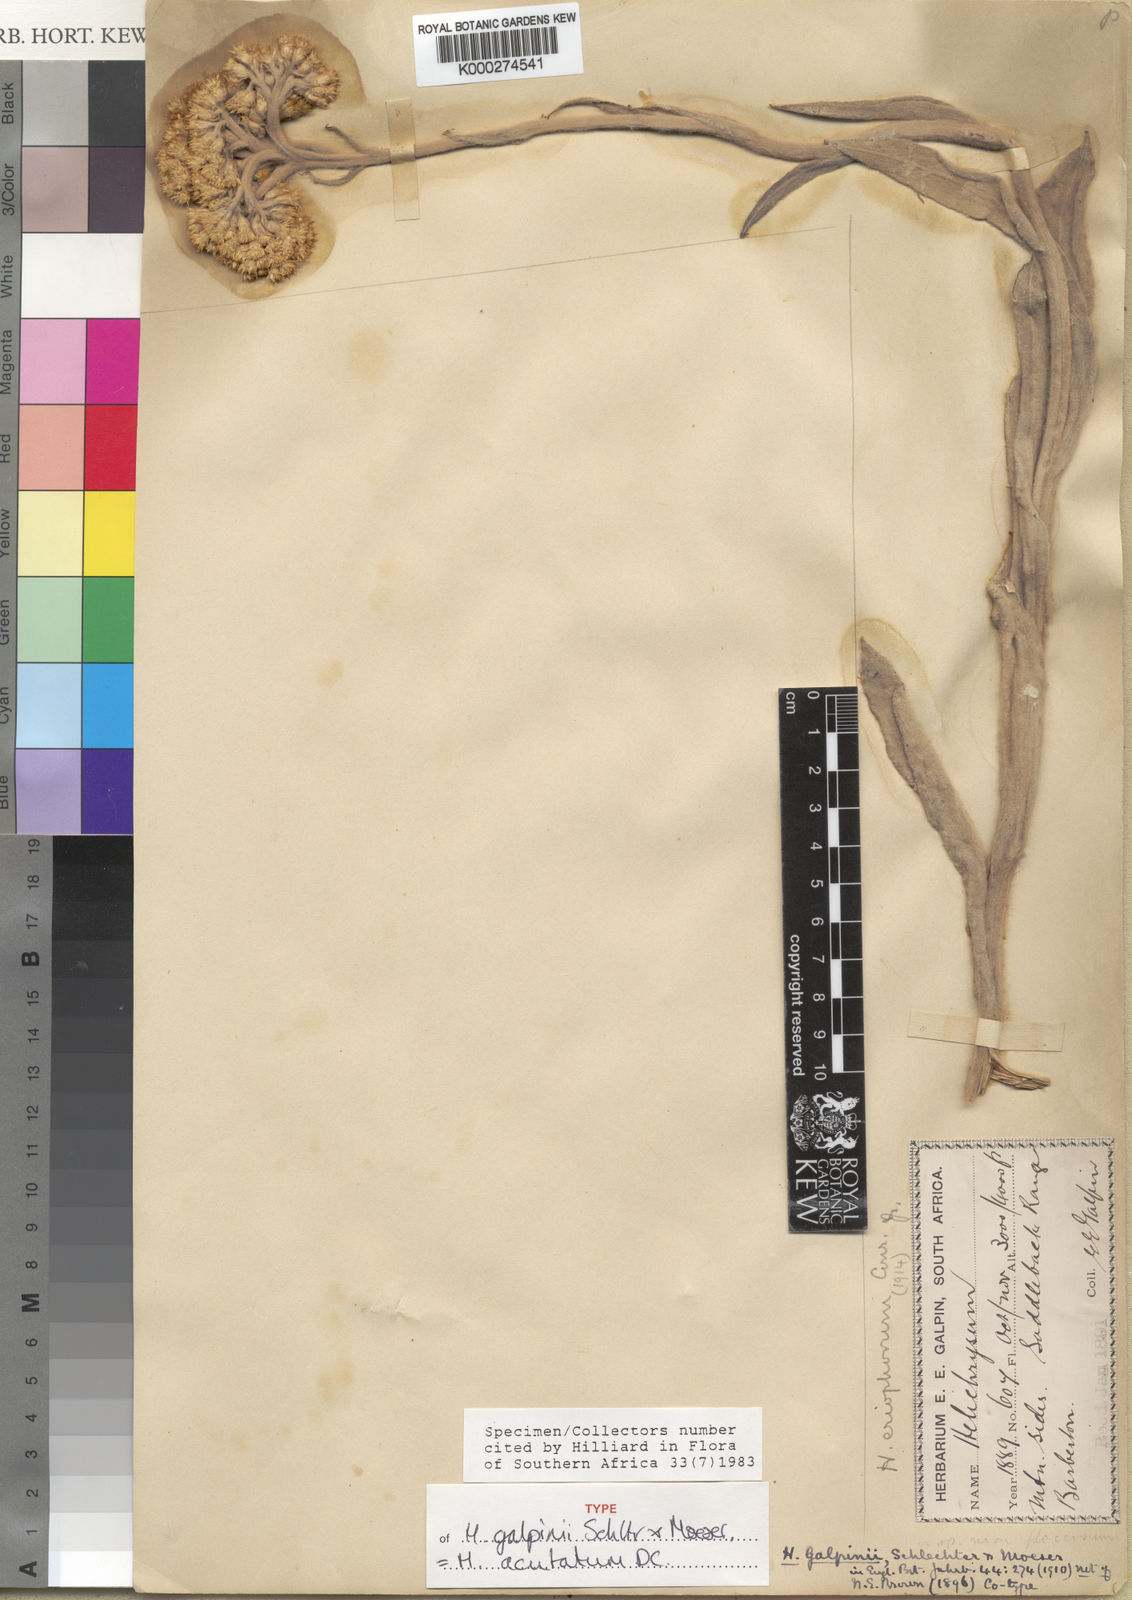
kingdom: Plantae
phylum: Tracheophyta
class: Magnoliopsida
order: Asterales
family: Asteraceae
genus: Helichrysum
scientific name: Helichrysum acutatum
